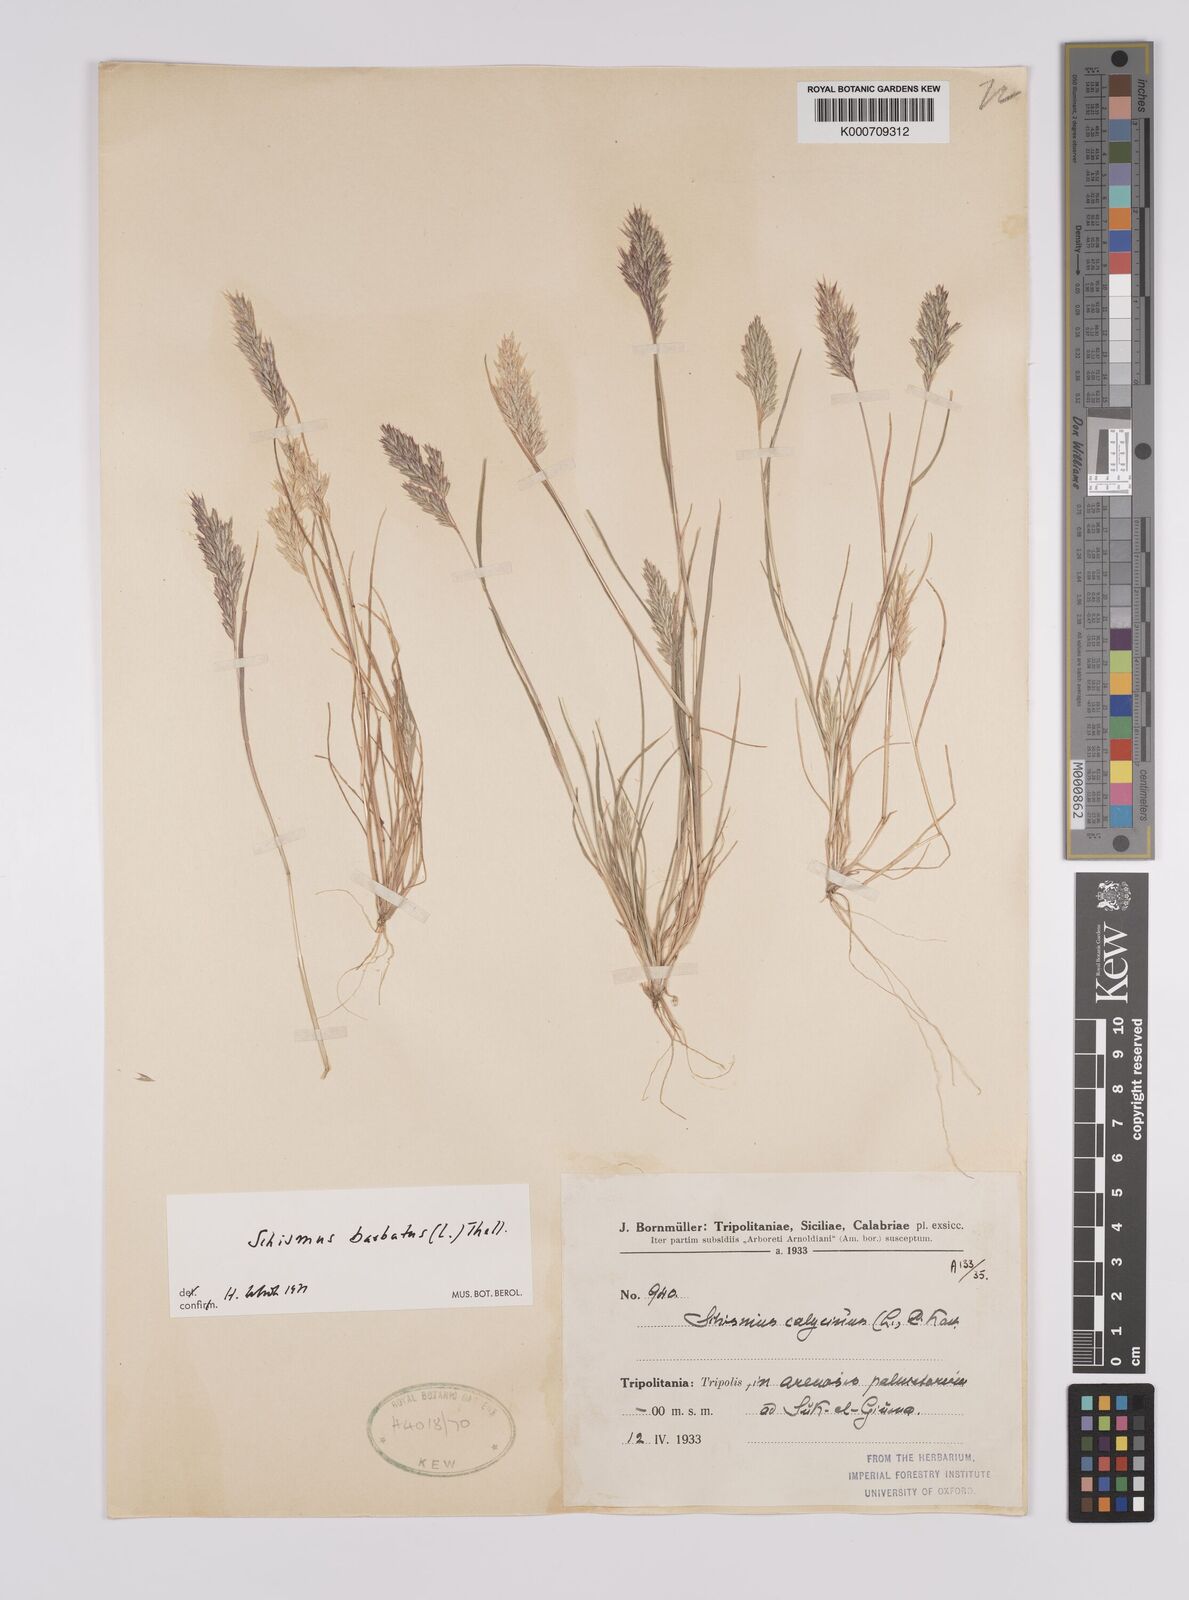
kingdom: Plantae
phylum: Tracheophyta
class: Liliopsida
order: Poales
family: Poaceae
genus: Schismus
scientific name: Schismus barbatus
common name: Kelch-grass
